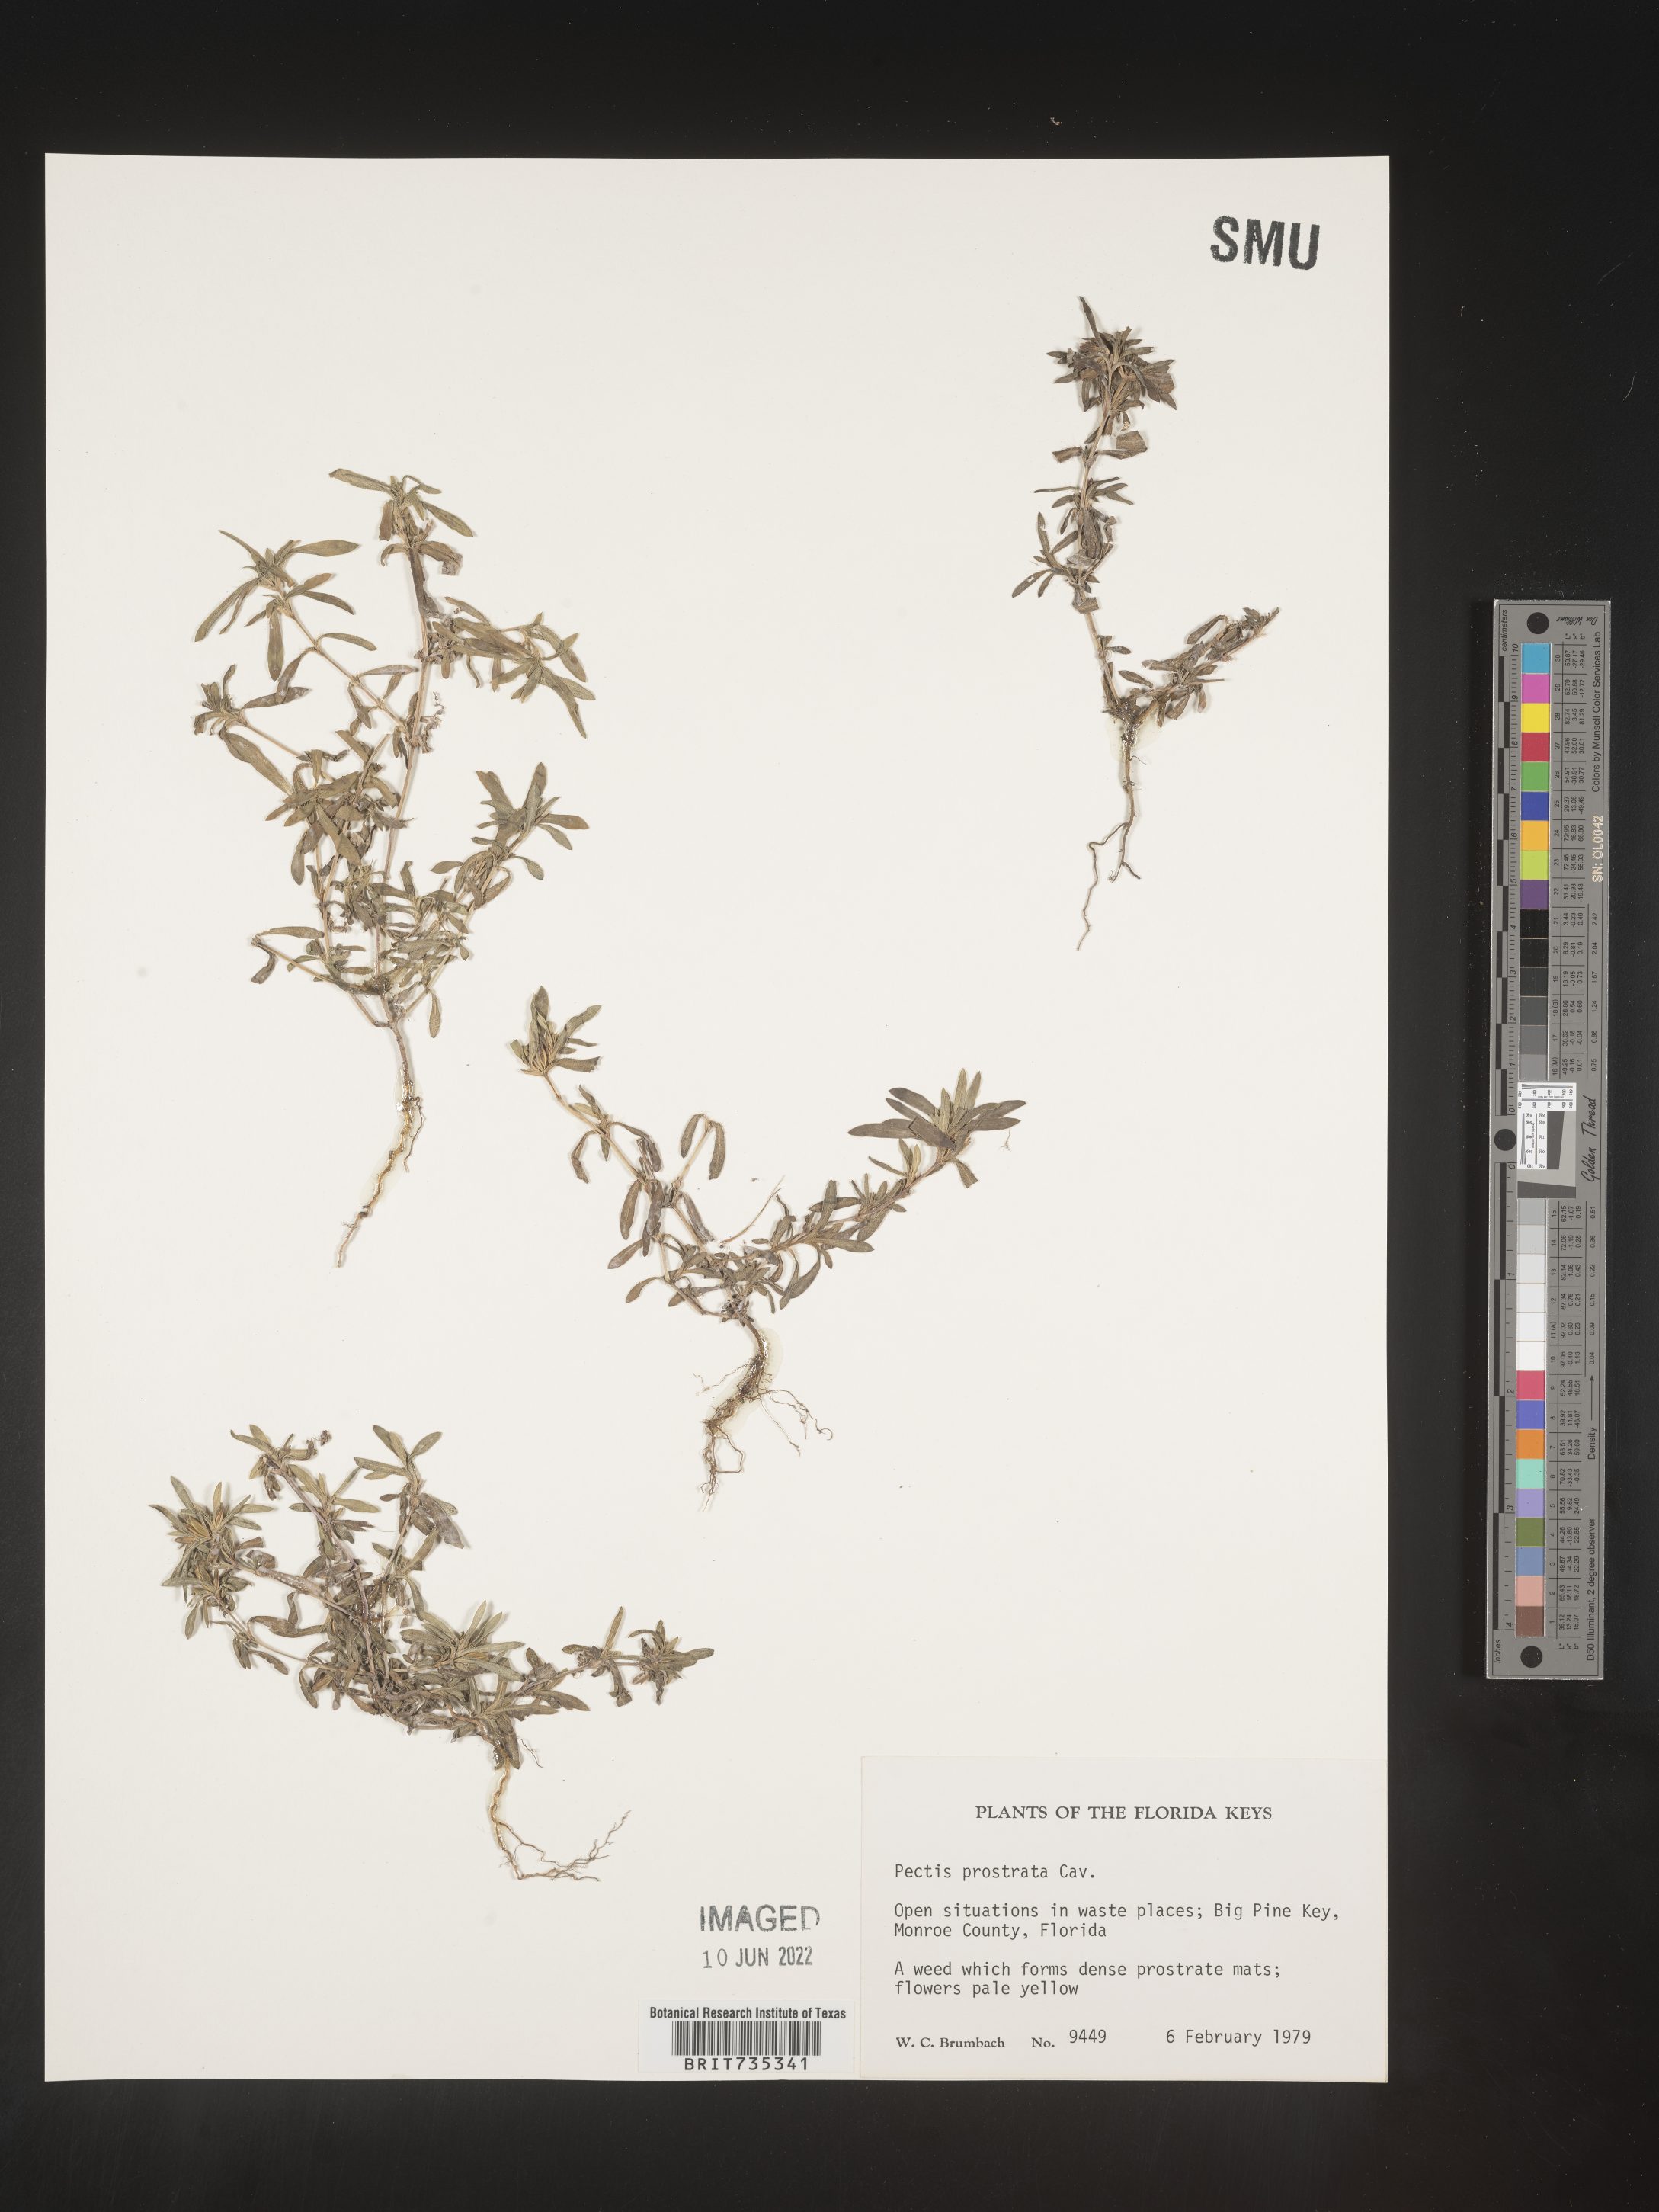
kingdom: Plantae
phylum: Tracheophyta
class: Magnoliopsida
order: Asterales
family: Asteraceae
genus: Pectis
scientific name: Pectis prostrata
